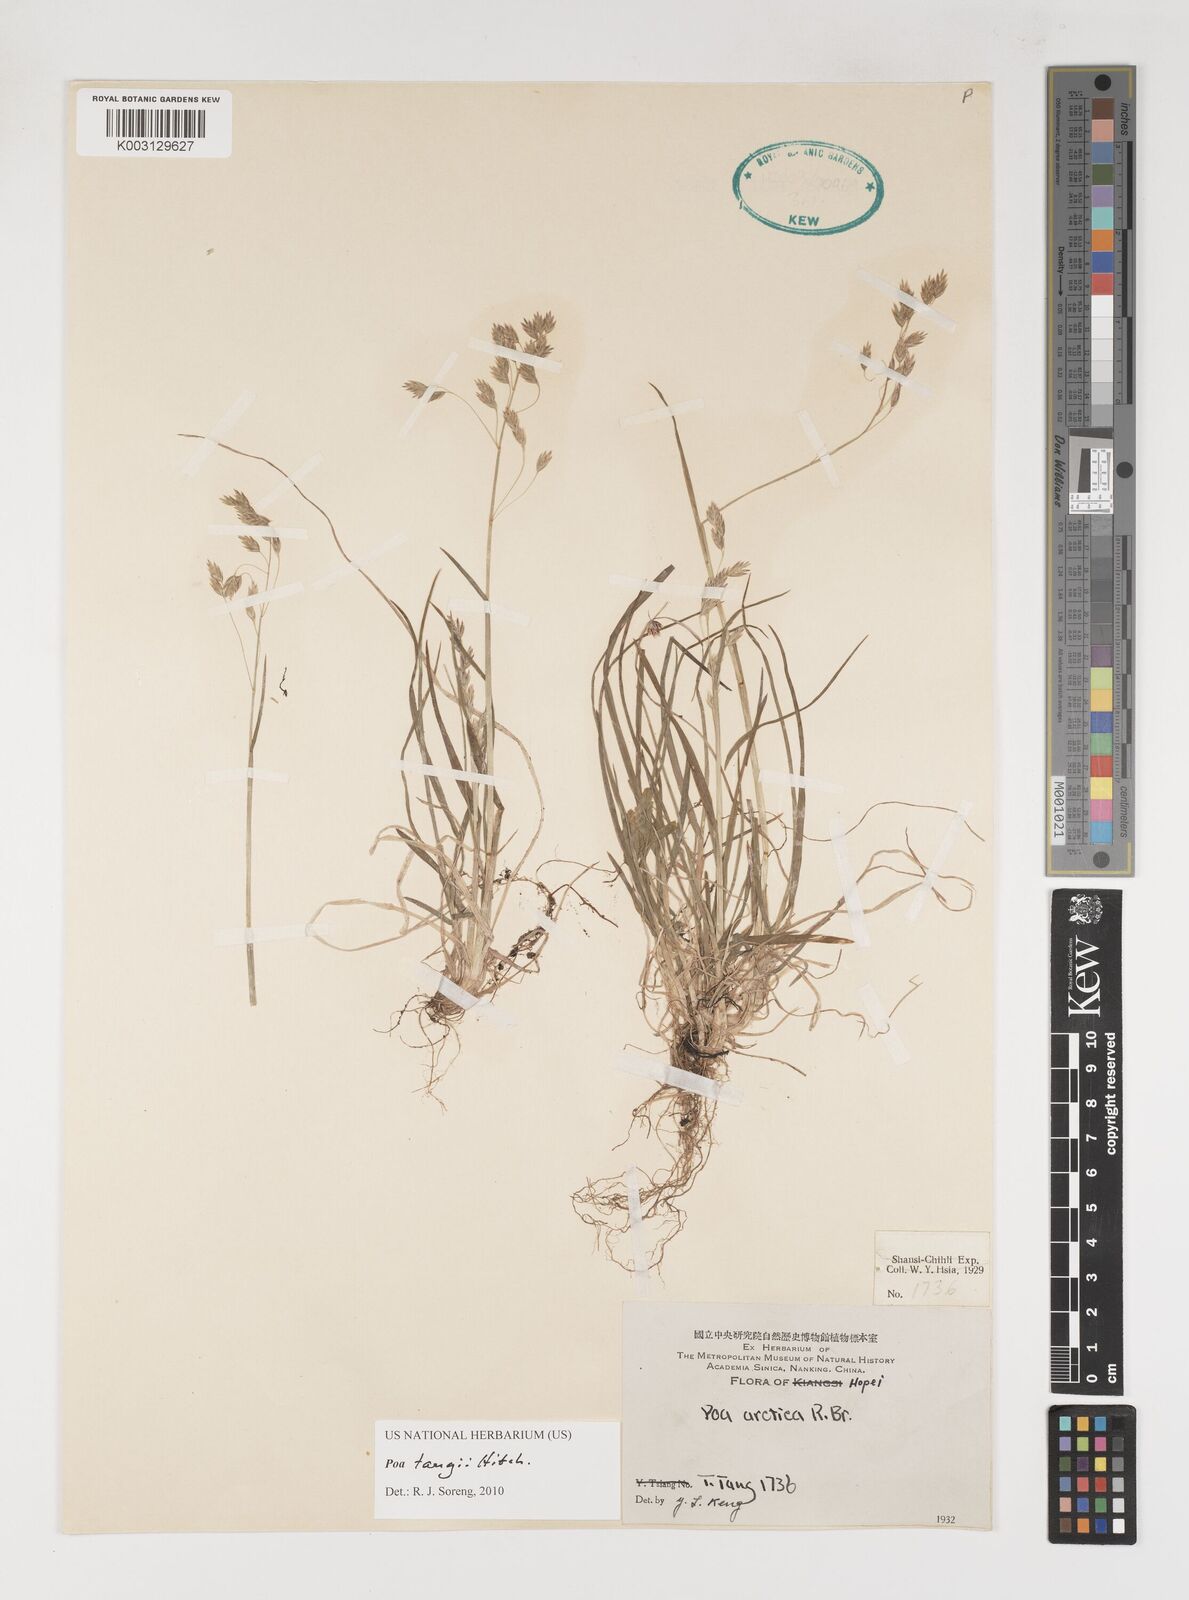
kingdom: Plantae
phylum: Tracheophyta
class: Liliopsida
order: Poales
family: Poaceae
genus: Poa
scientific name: Poa tangii
